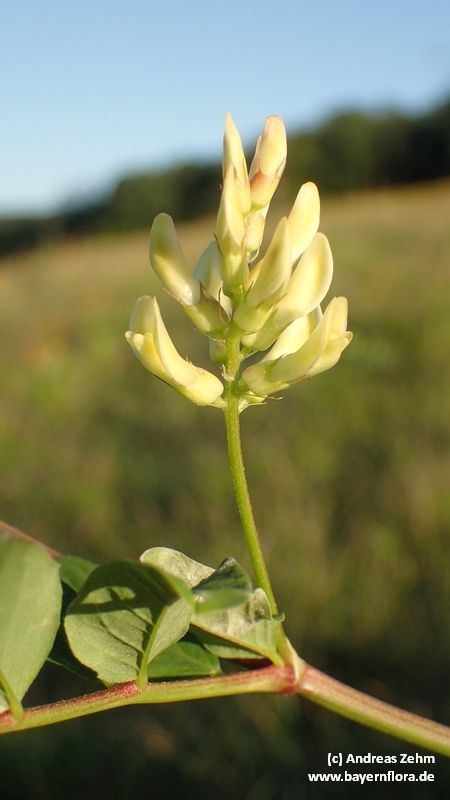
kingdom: Plantae
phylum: Tracheophyta
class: Magnoliopsida
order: Fabales
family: Fabaceae
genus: Astragalus
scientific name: Astragalus glycyphyllos
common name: Wild liquorice
